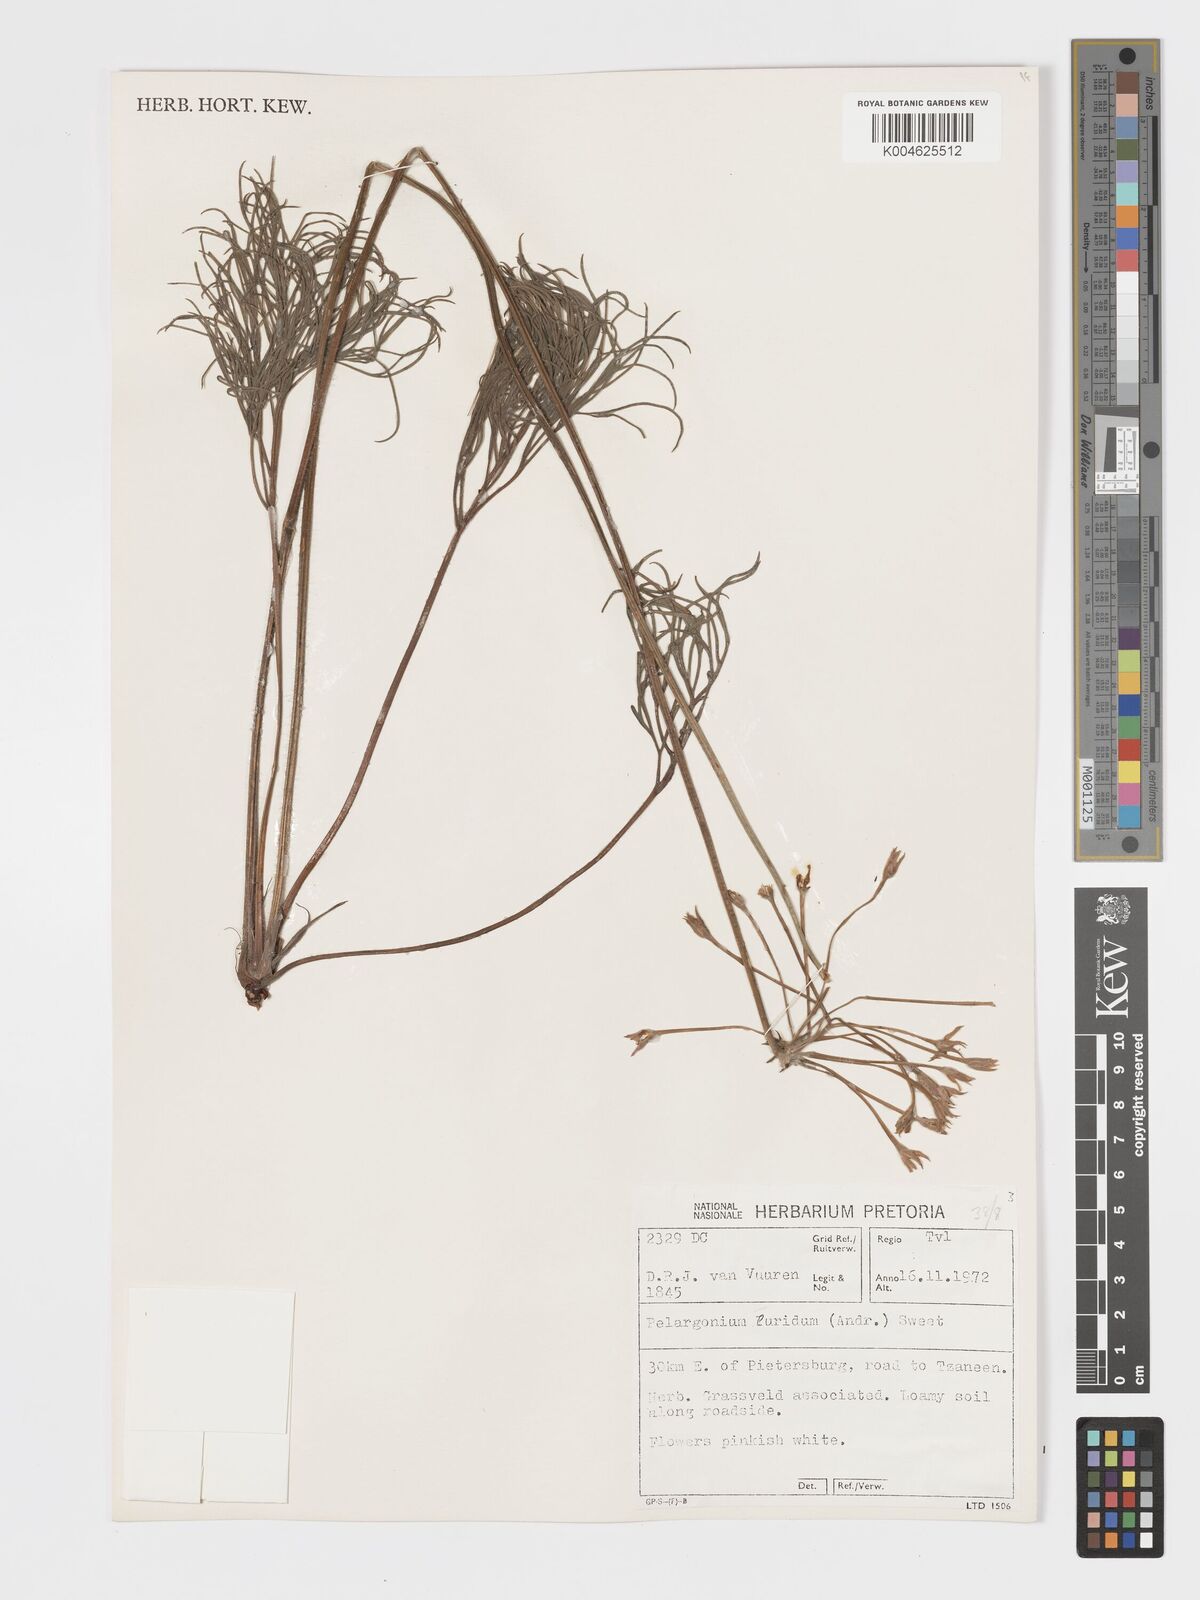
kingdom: Plantae
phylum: Tracheophyta
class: Magnoliopsida
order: Geraniales
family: Geraniaceae
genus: Pelargonium
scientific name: Pelargonium luridum
